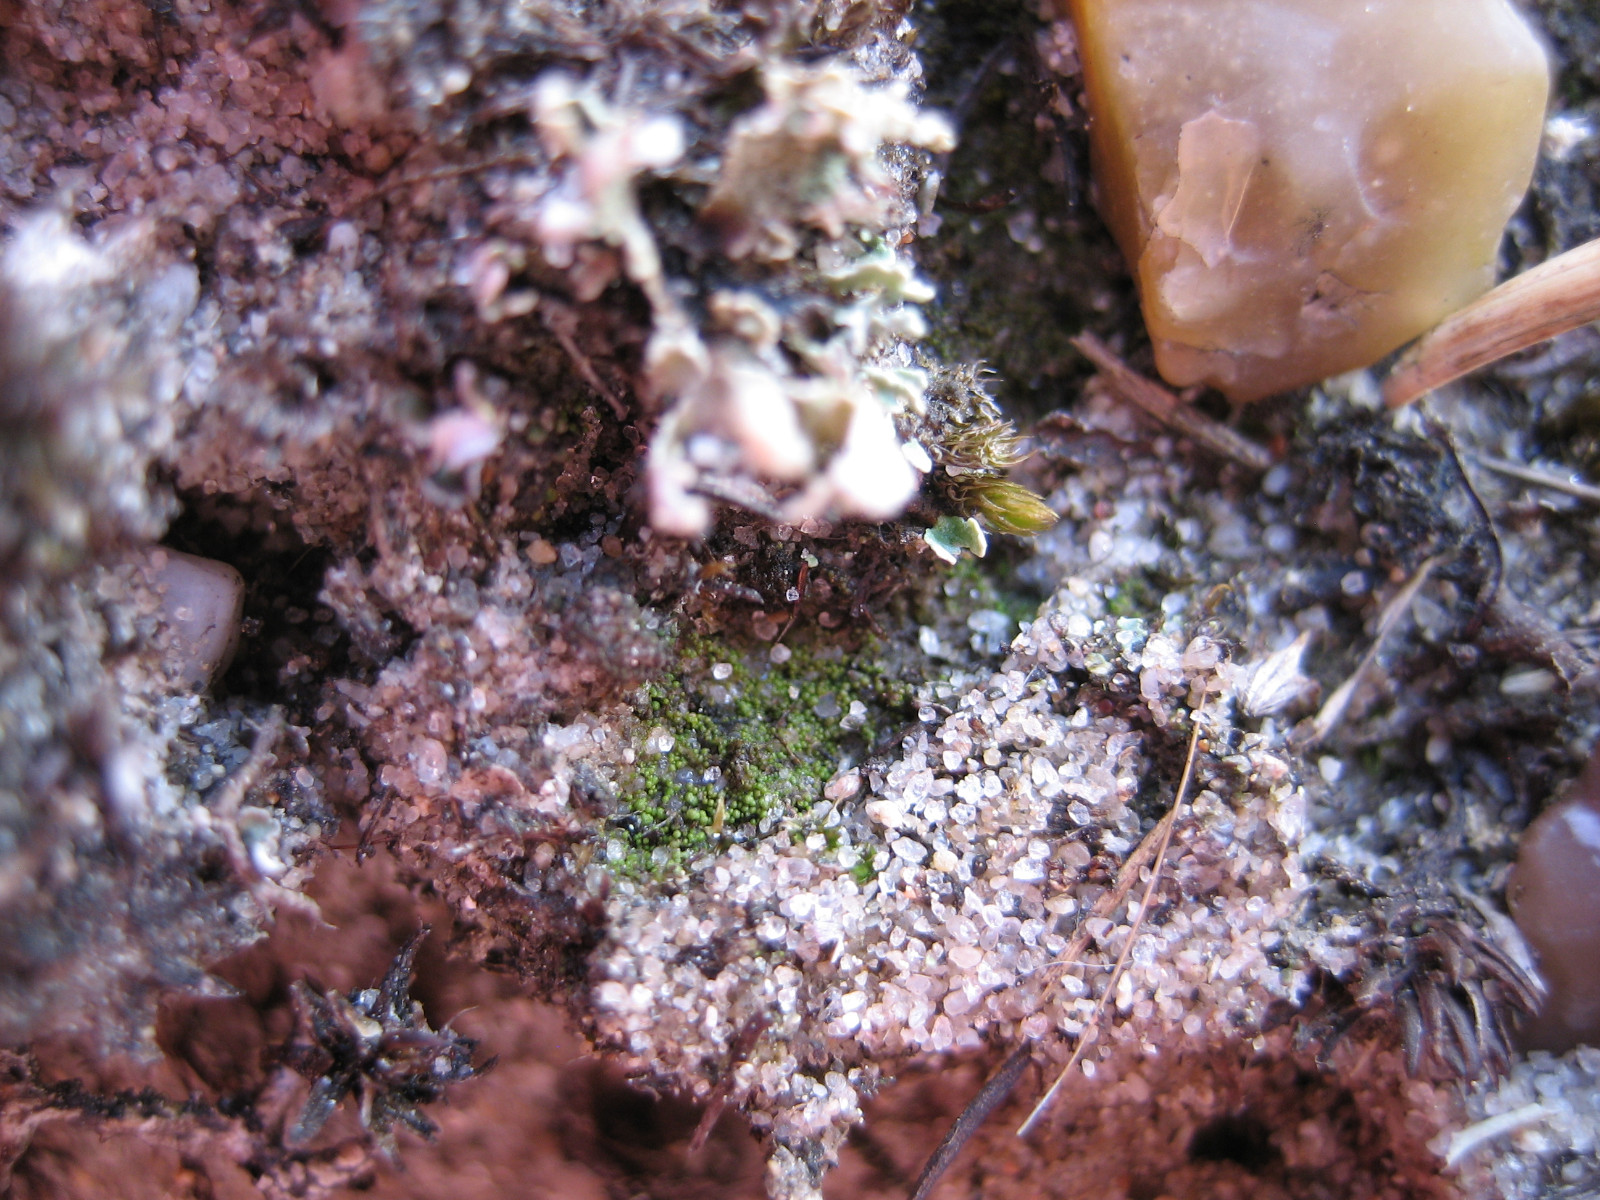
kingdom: Fungi
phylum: Ascomycota
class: Lecanoromycetes
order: Baeomycetales
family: Trapeliaceae
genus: Placynthiella
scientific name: Placynthiella oligotropha
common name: vorte-skivelav
